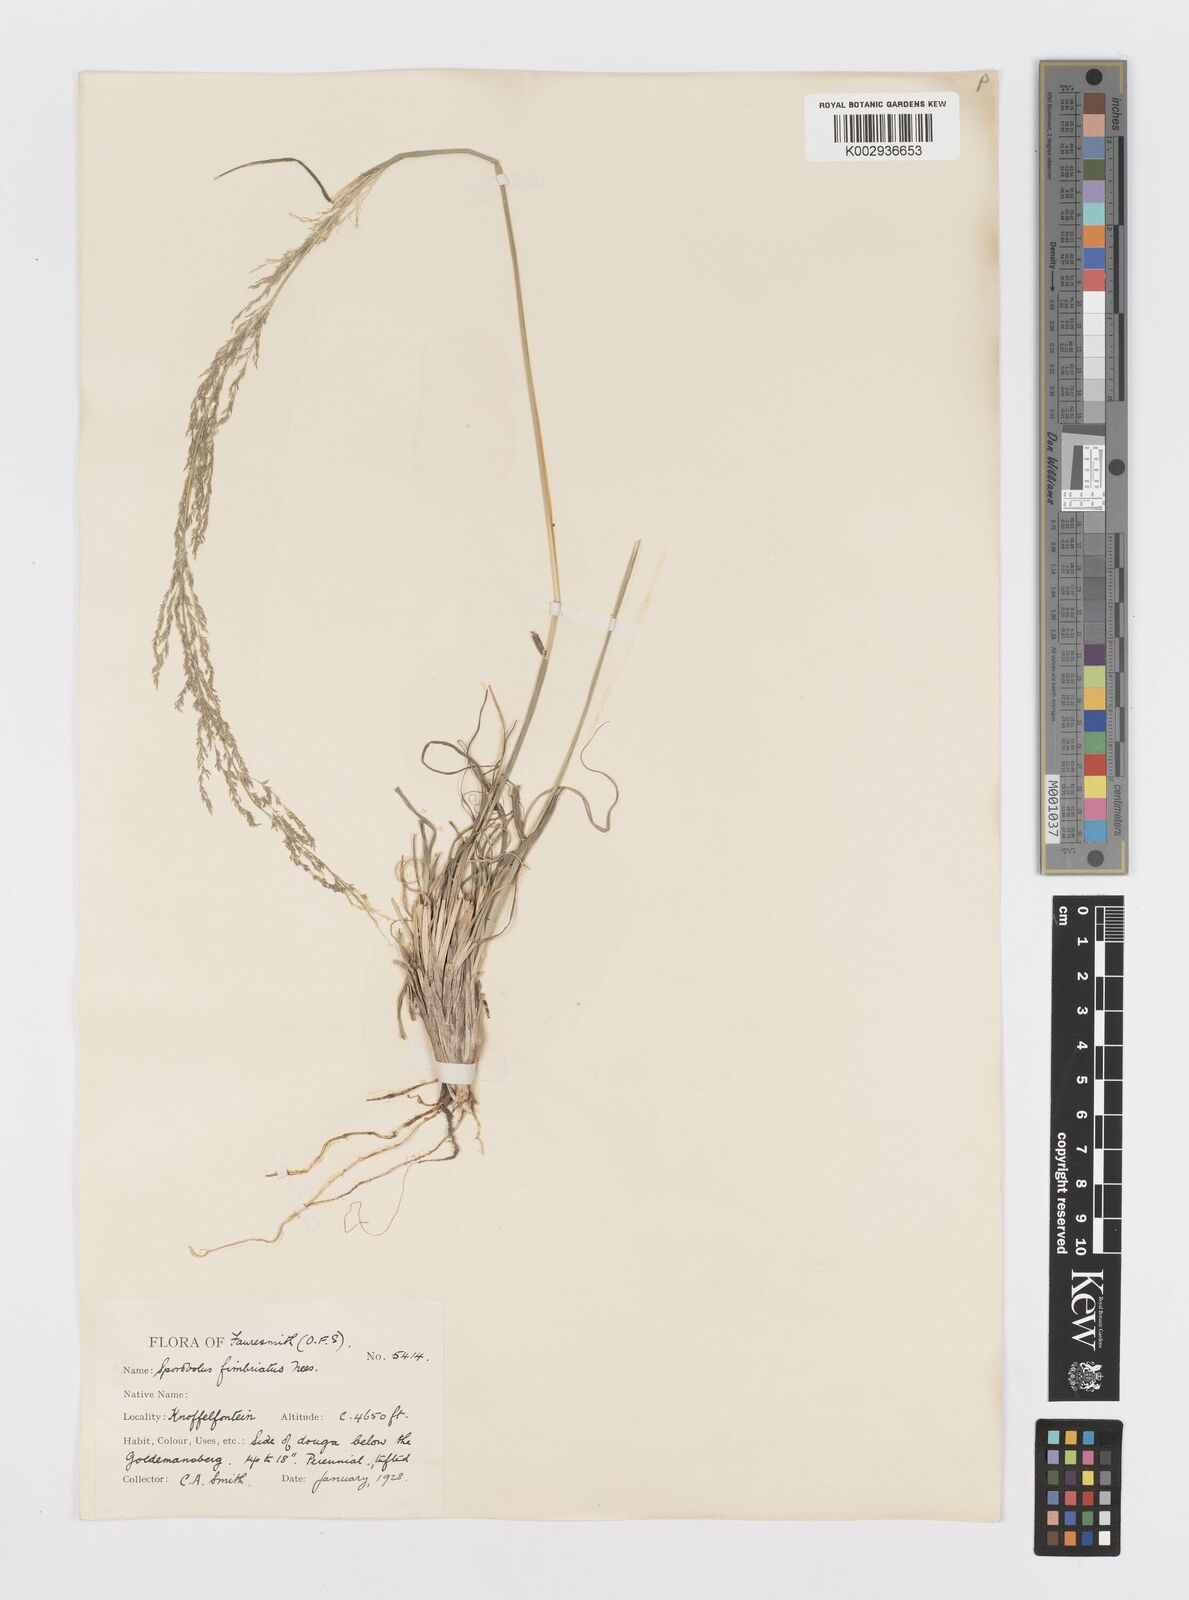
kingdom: Plantae
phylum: Tracheophyta
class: Liliopsida
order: Poales
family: Poaceae
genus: Sporobolus
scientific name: Sporobolus fimbriatus
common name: Fringed dropseed
